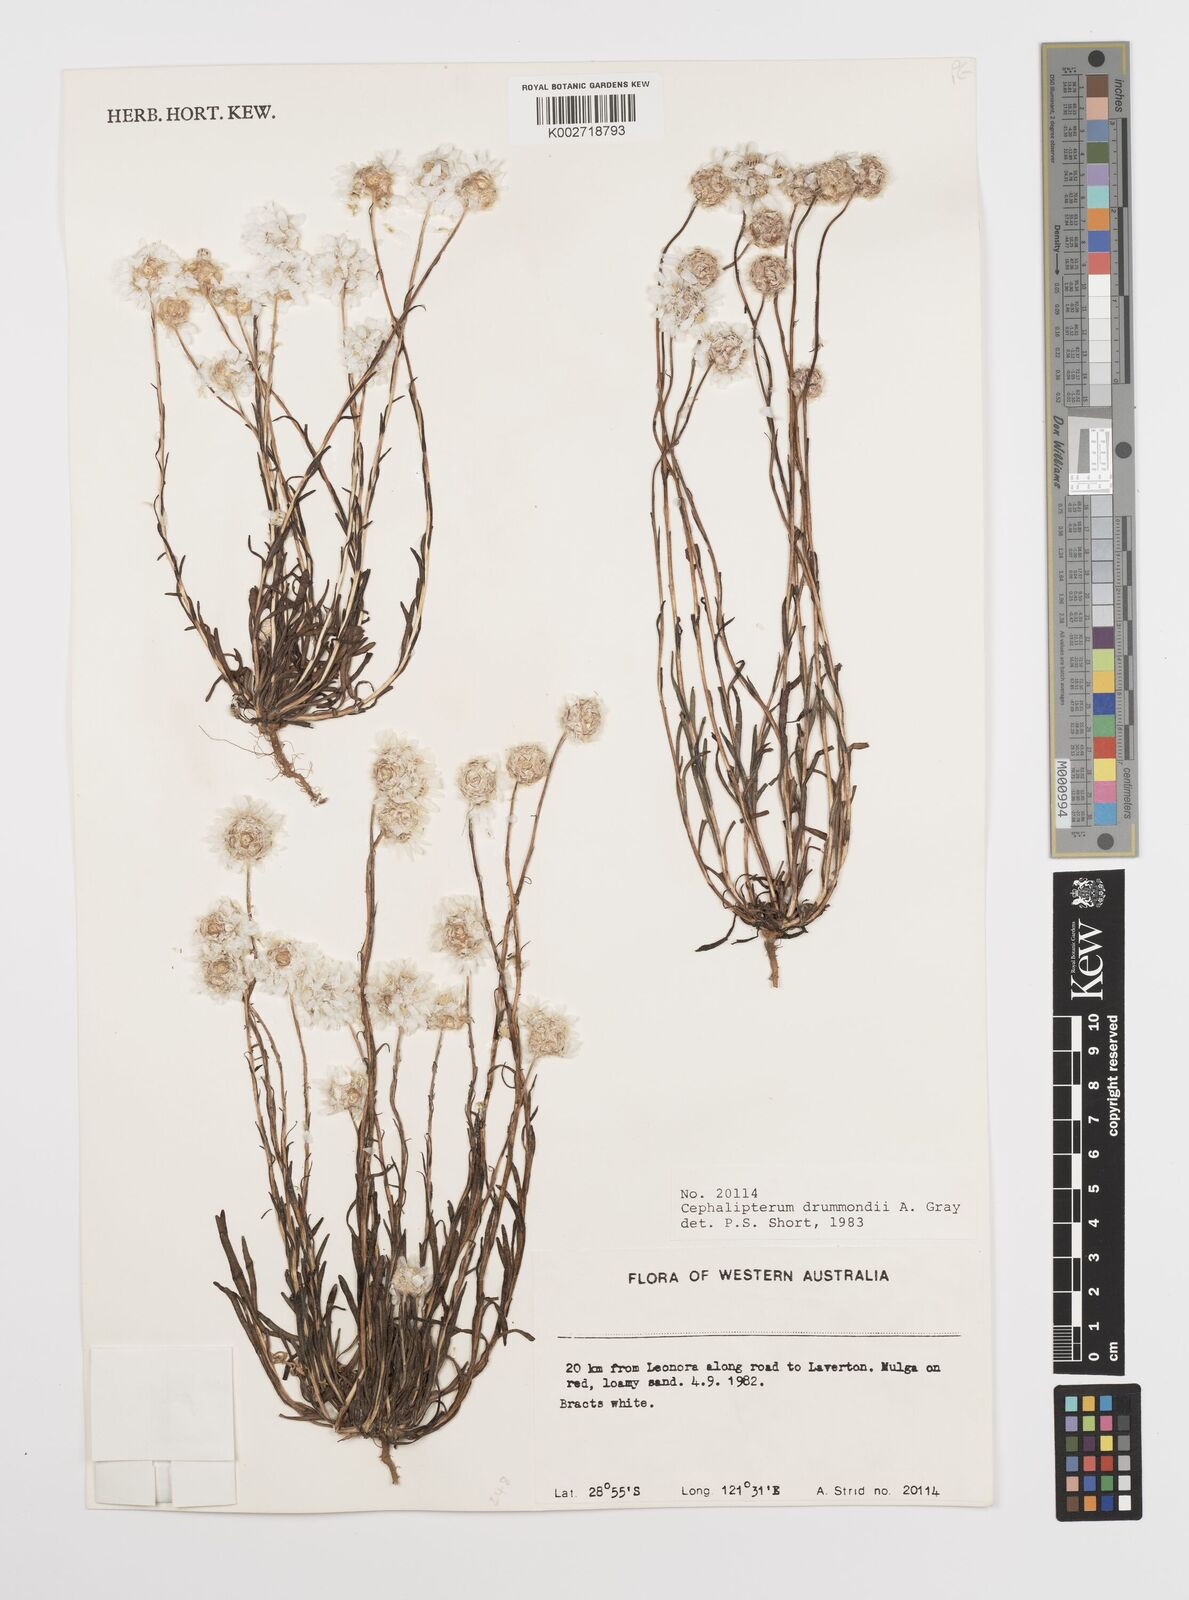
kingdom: Plantae
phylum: Tracheophyta
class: Magnoliopsida
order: Asterales
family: Asteraceae
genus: Cephalipterum
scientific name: Cephalipterum drummondii
